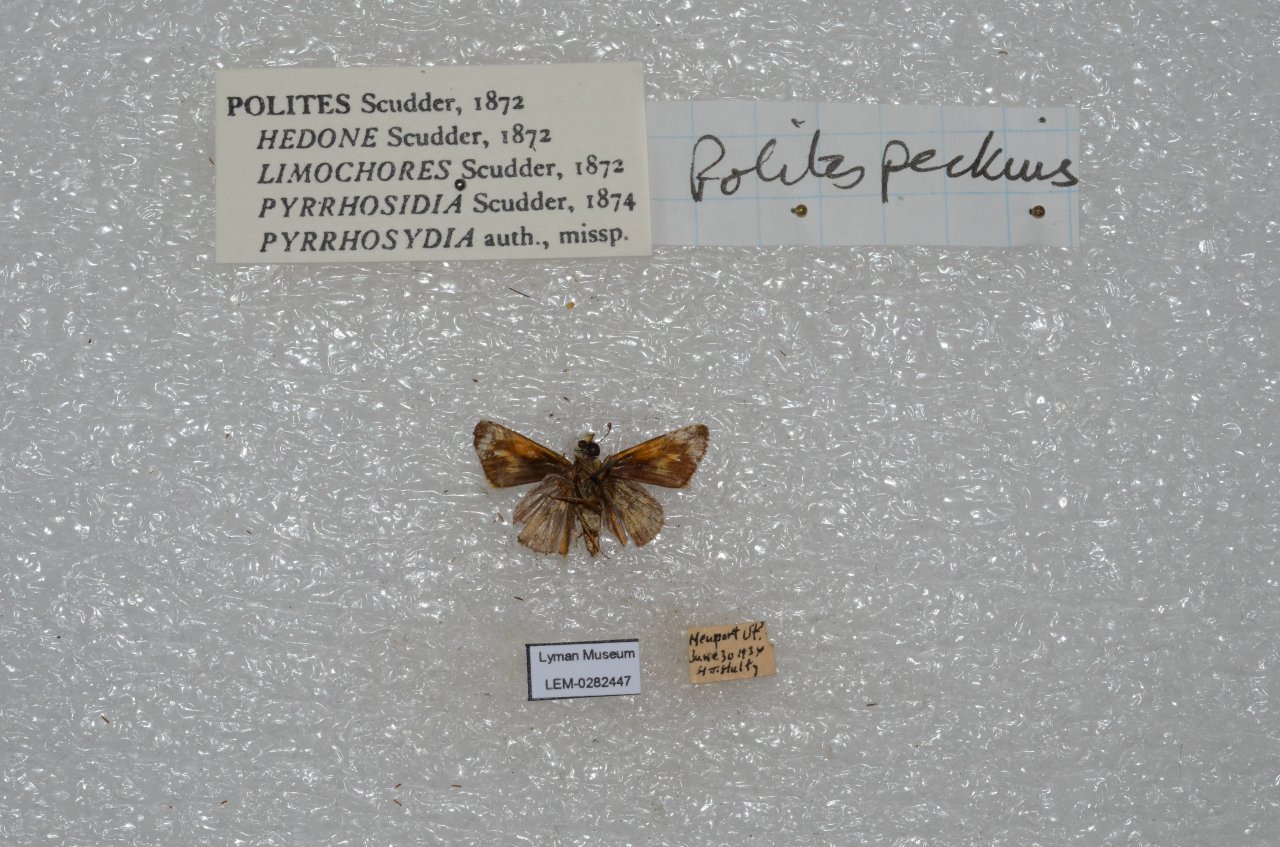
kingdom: Animalia
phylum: Arthropoda
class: Insecta
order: Lepidoptera
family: Hesperiidae
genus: Polites
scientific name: Polites coras
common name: Peck's Skipper
